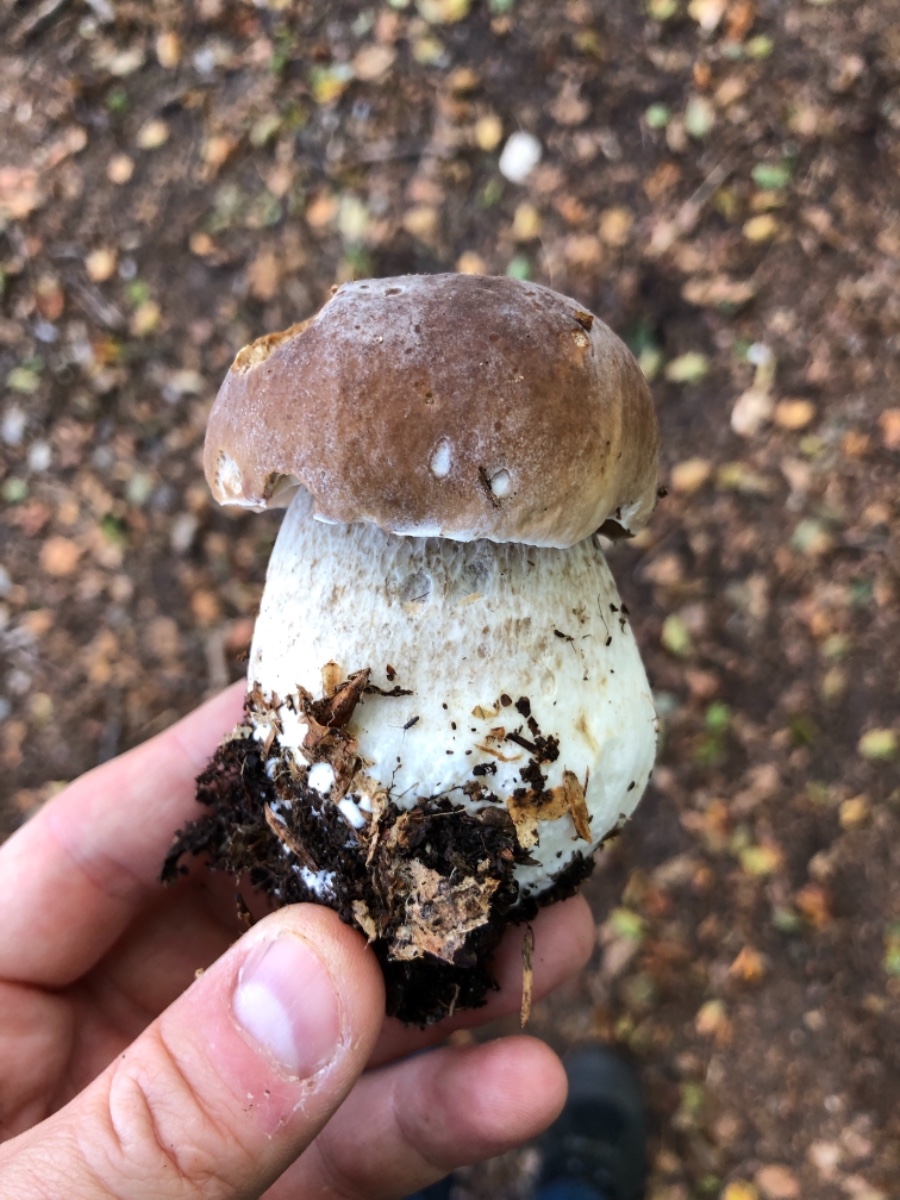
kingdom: Fungi
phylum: Basidiomycota
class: Agaricomycetes
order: Boletales
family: Boletaceae
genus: Boletus
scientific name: Boletus edulis
